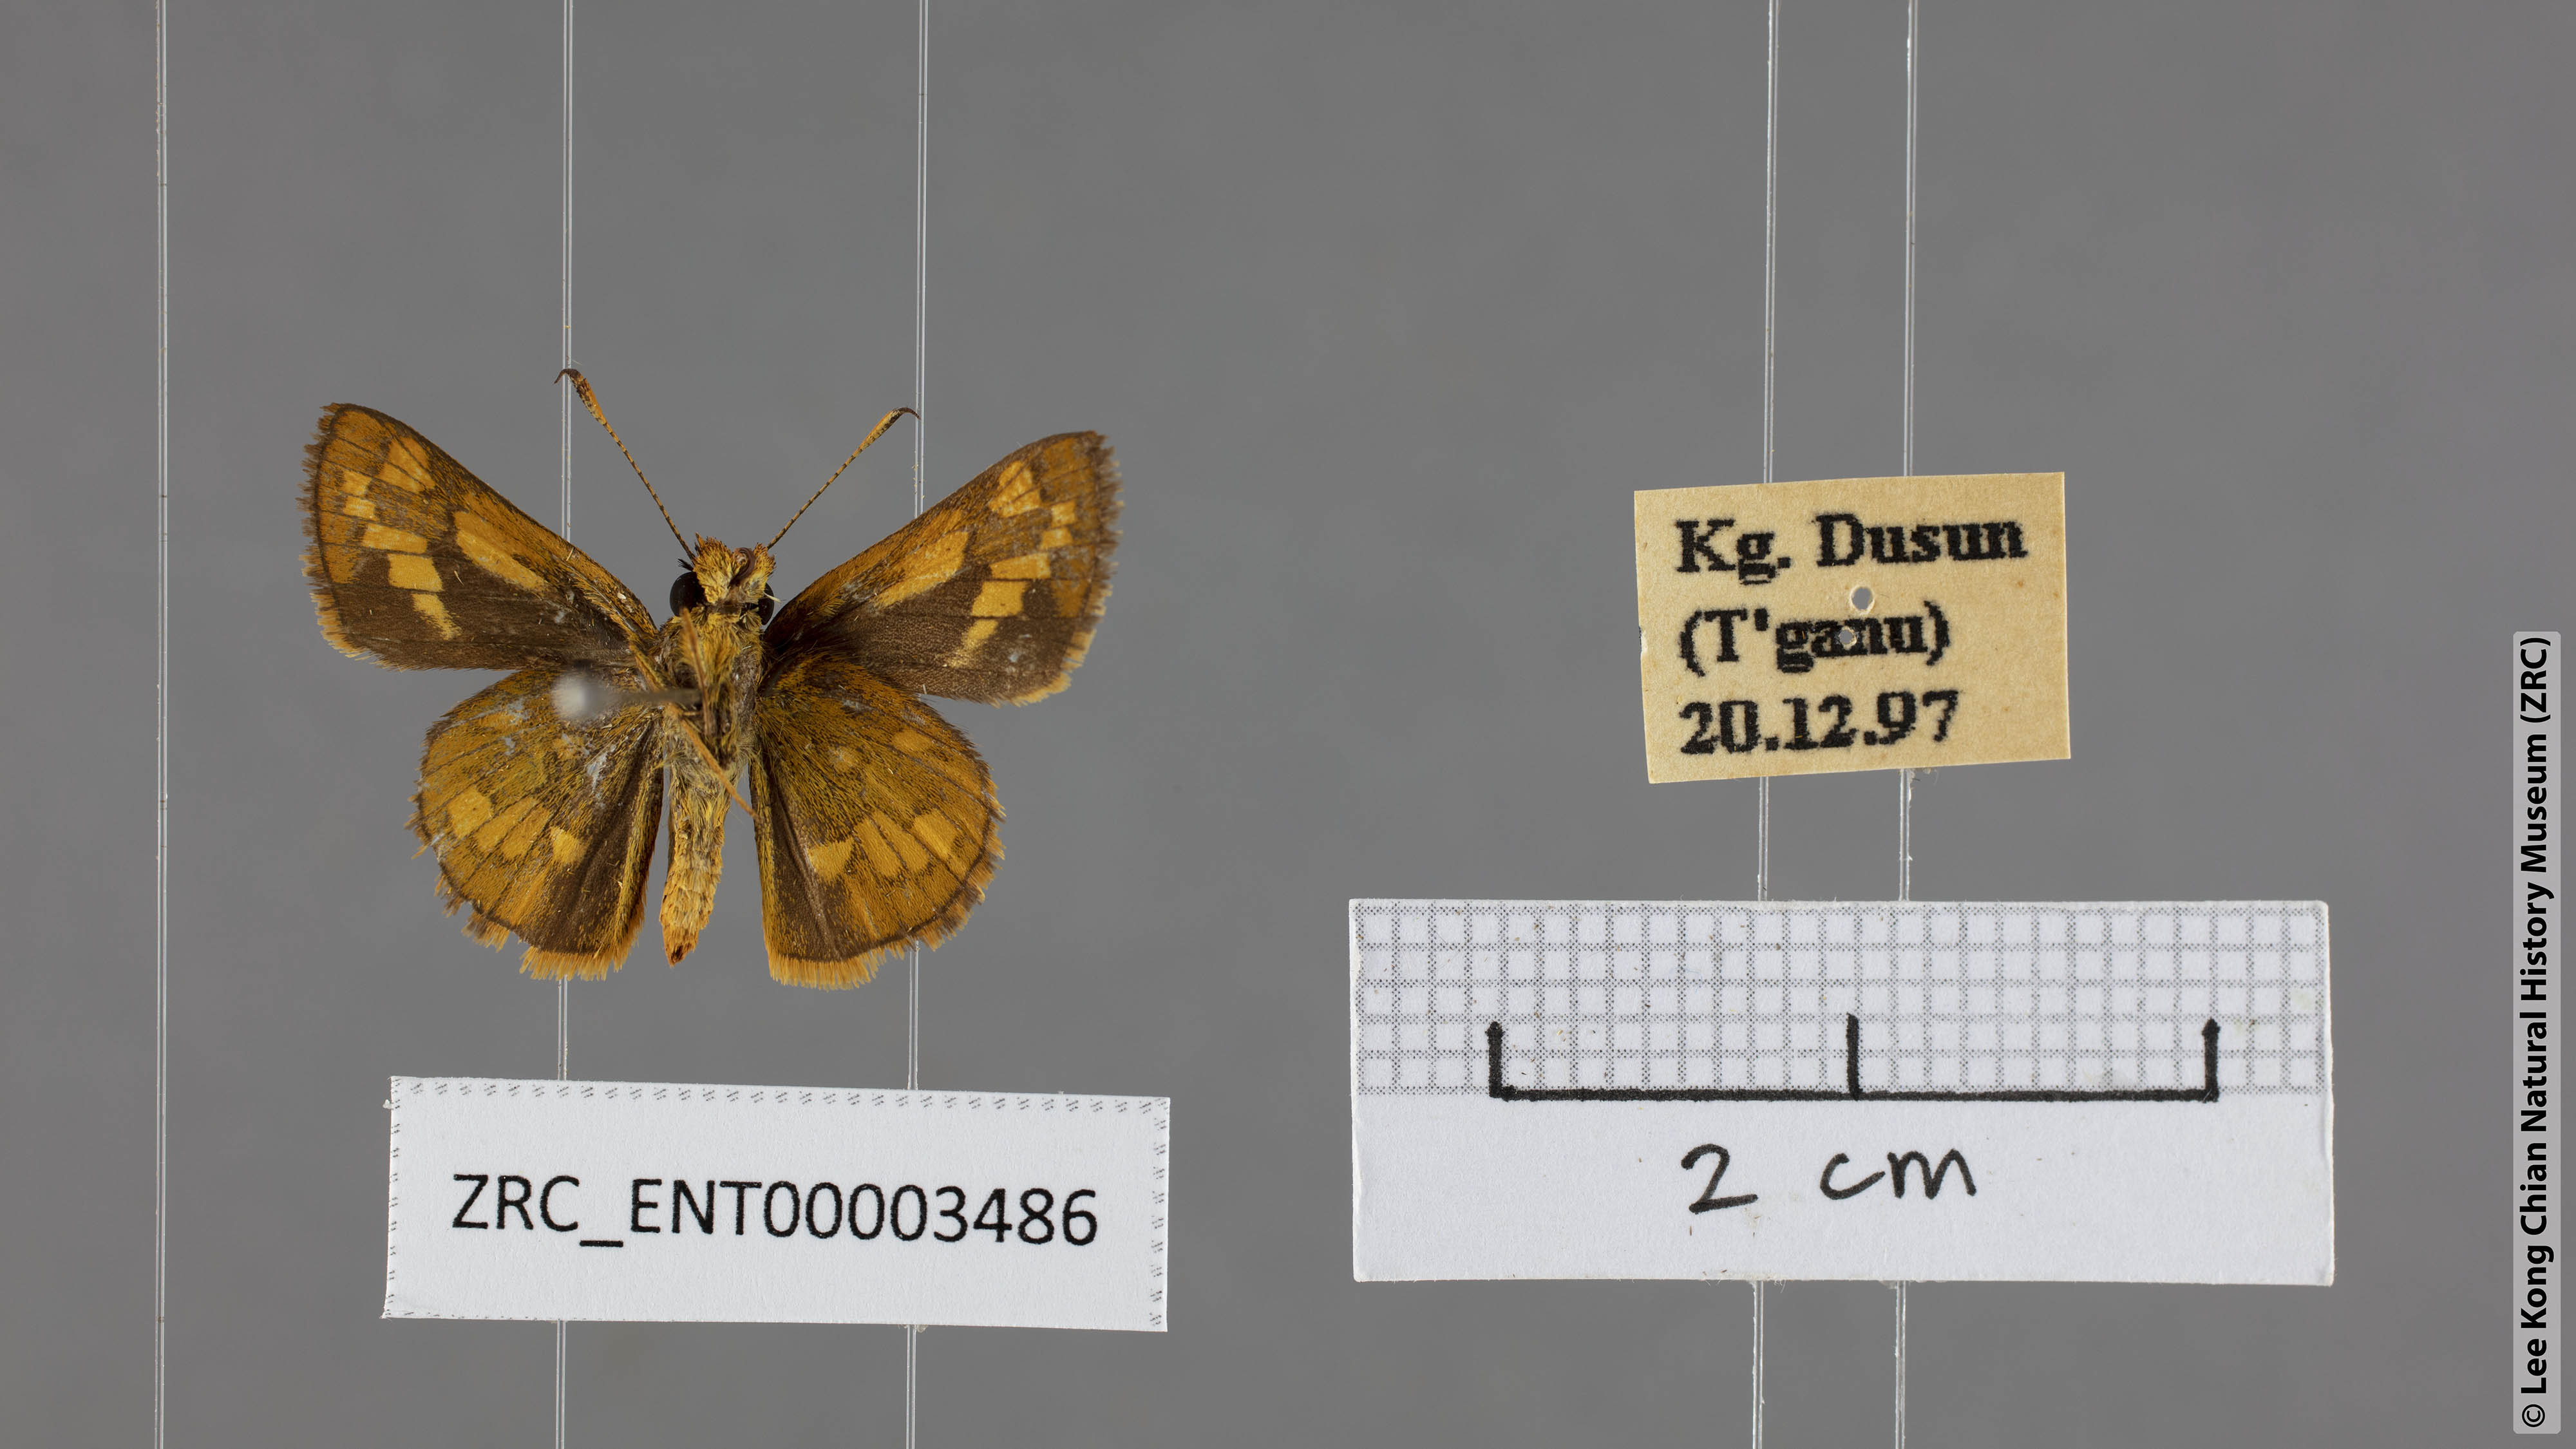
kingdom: Animalia
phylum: Arthropoda
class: Insecta
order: Lepidoptera
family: Hesperiidae
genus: Potanthus
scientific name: Potanthus omaha
